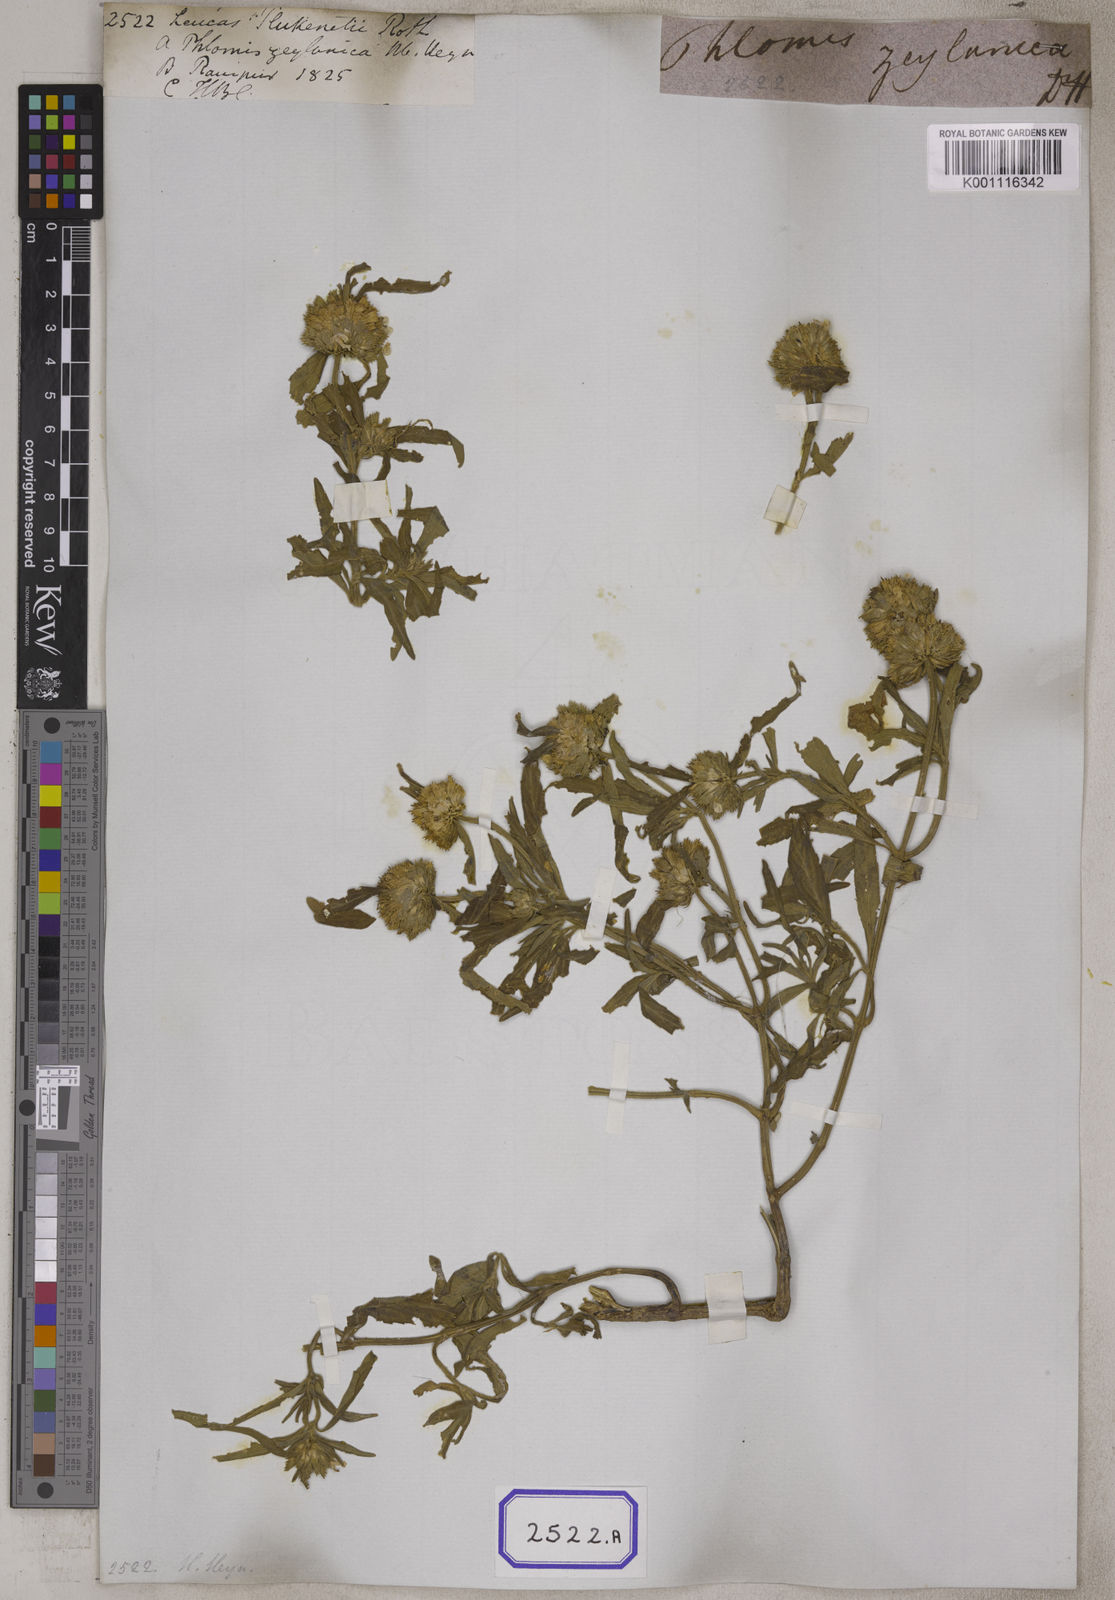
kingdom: Plantae
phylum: Tracheophyta
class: Magnoliopsida
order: Lamiales
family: Lamiaceae
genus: Leucas
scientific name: Leucas aspera
